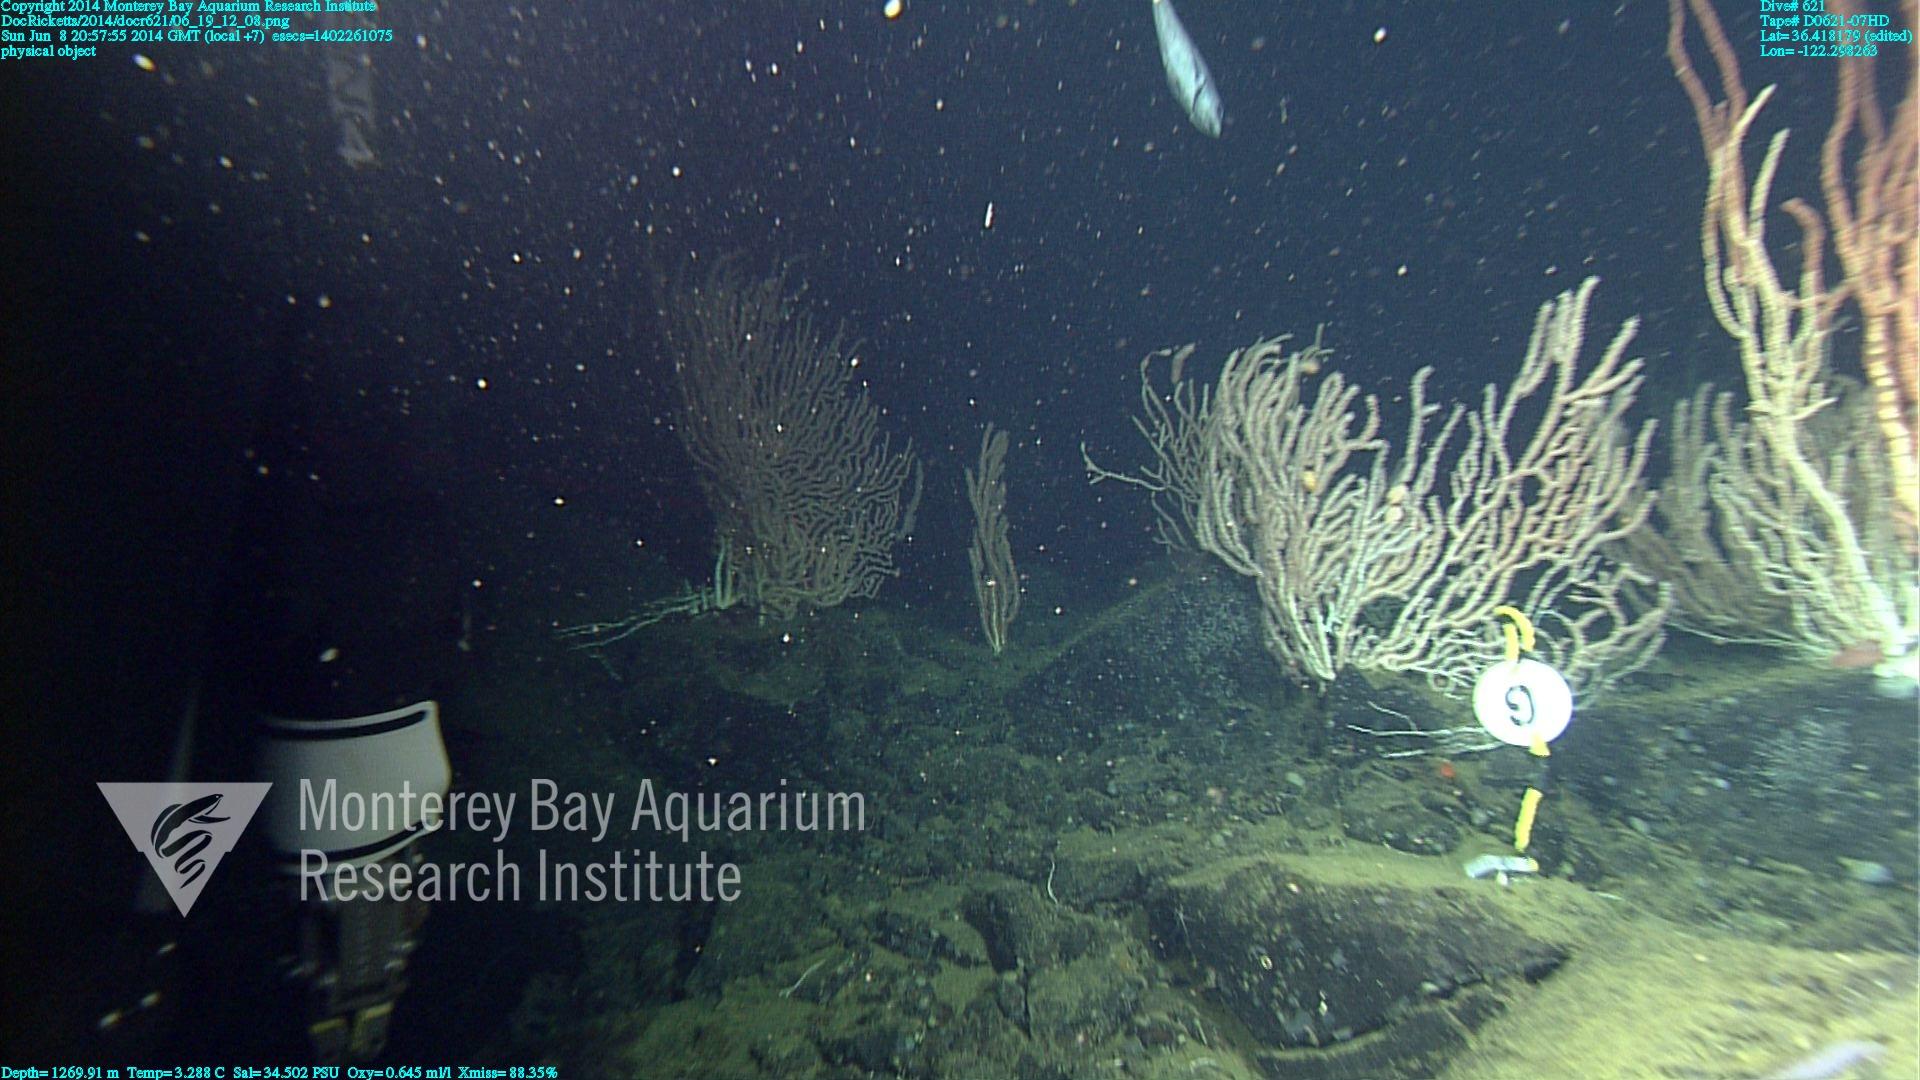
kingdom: Animalia
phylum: Cnidaria
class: Anthozoa
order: Scleralcyonacea
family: Keratoisididae
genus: Keratoisis
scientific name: Keratoisis
